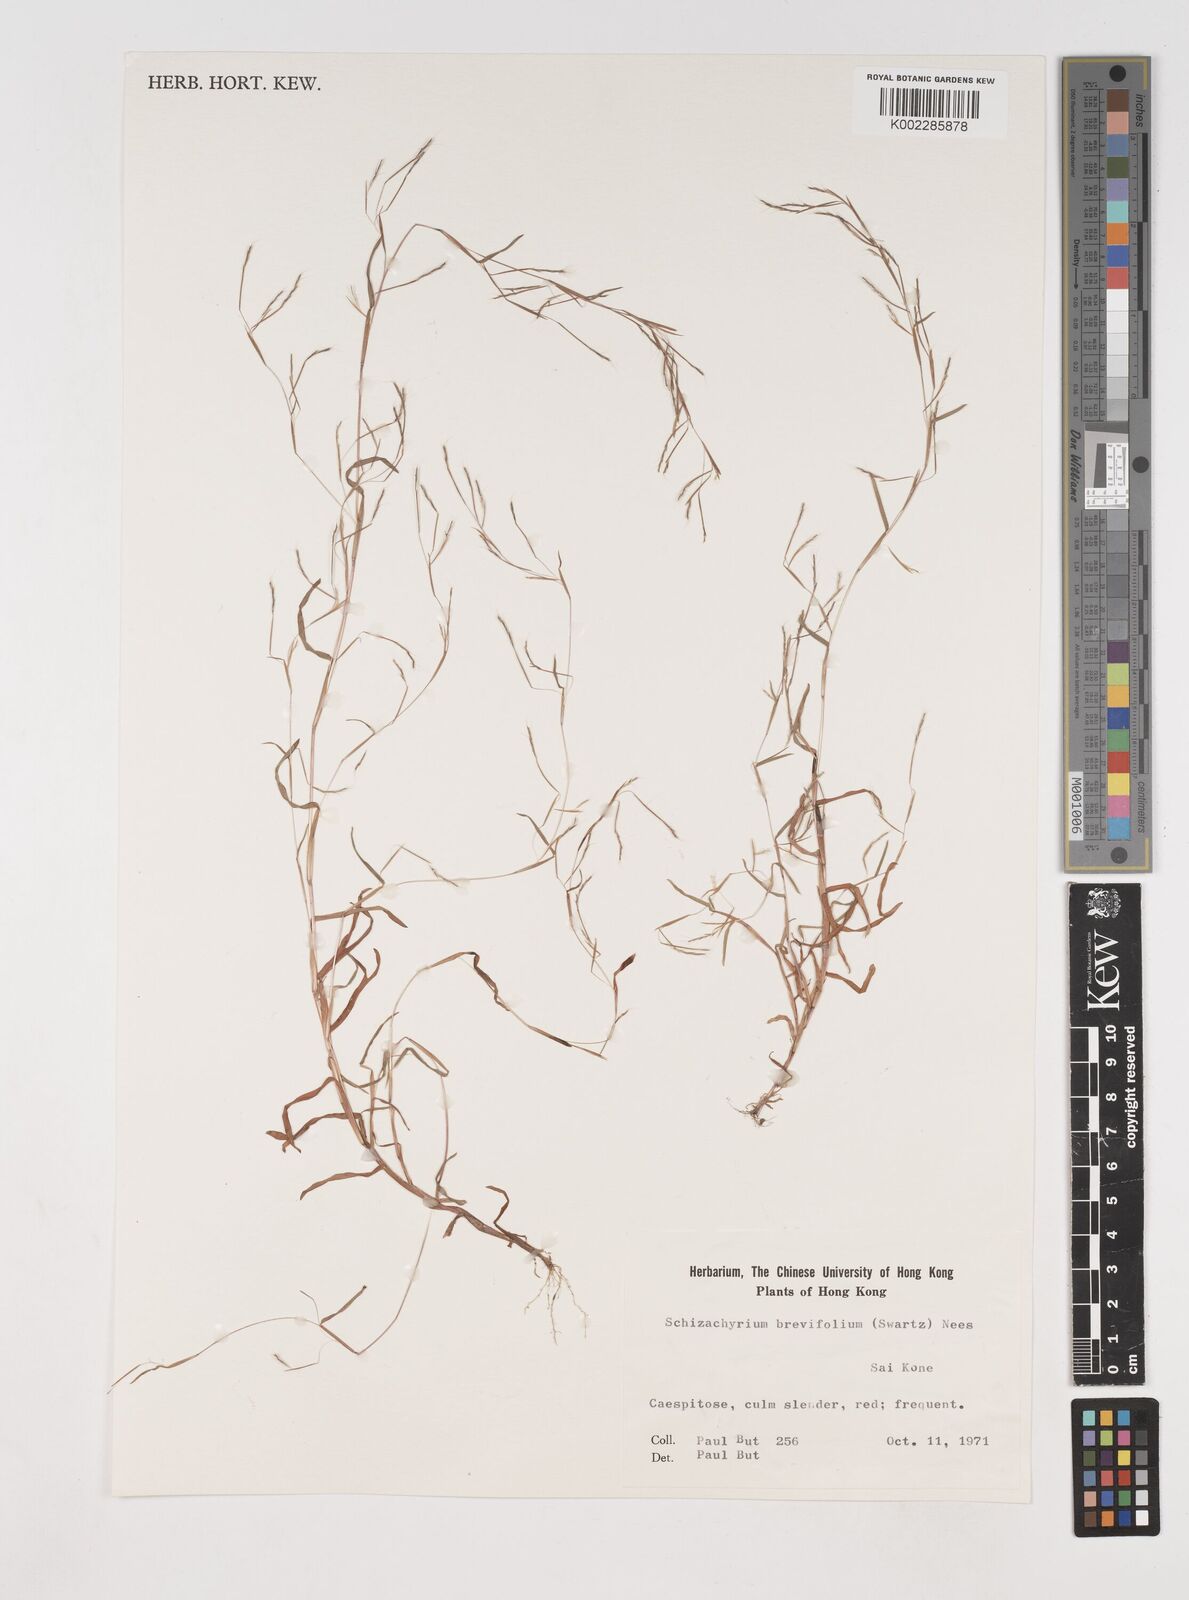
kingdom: Plantae
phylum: Tracheophyta
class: Liliopsida
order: Poales
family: Poaceae
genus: Schizachyrium
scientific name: Schizachyrium brevifolium
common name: Serillo dulce
